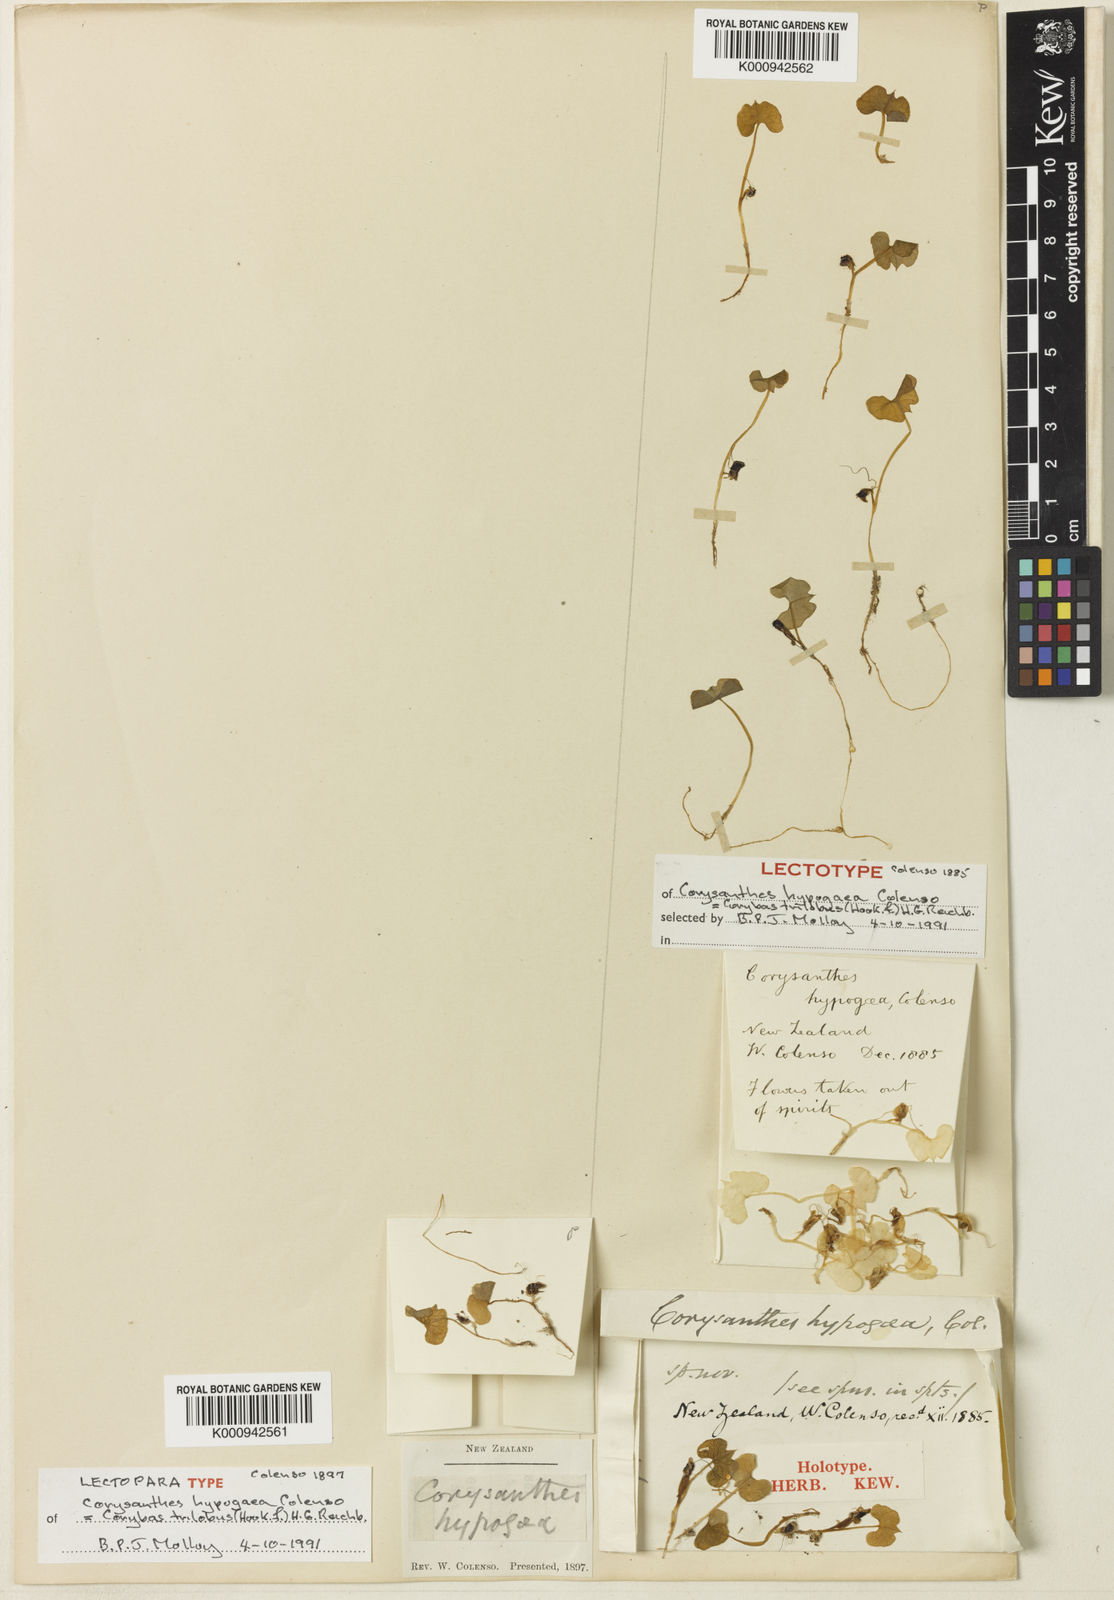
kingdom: Plantae
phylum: Tracheophyta
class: Liliopsida
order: Asparagales
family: Orchidaceae
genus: Corybas
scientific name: Corybas trilobus
